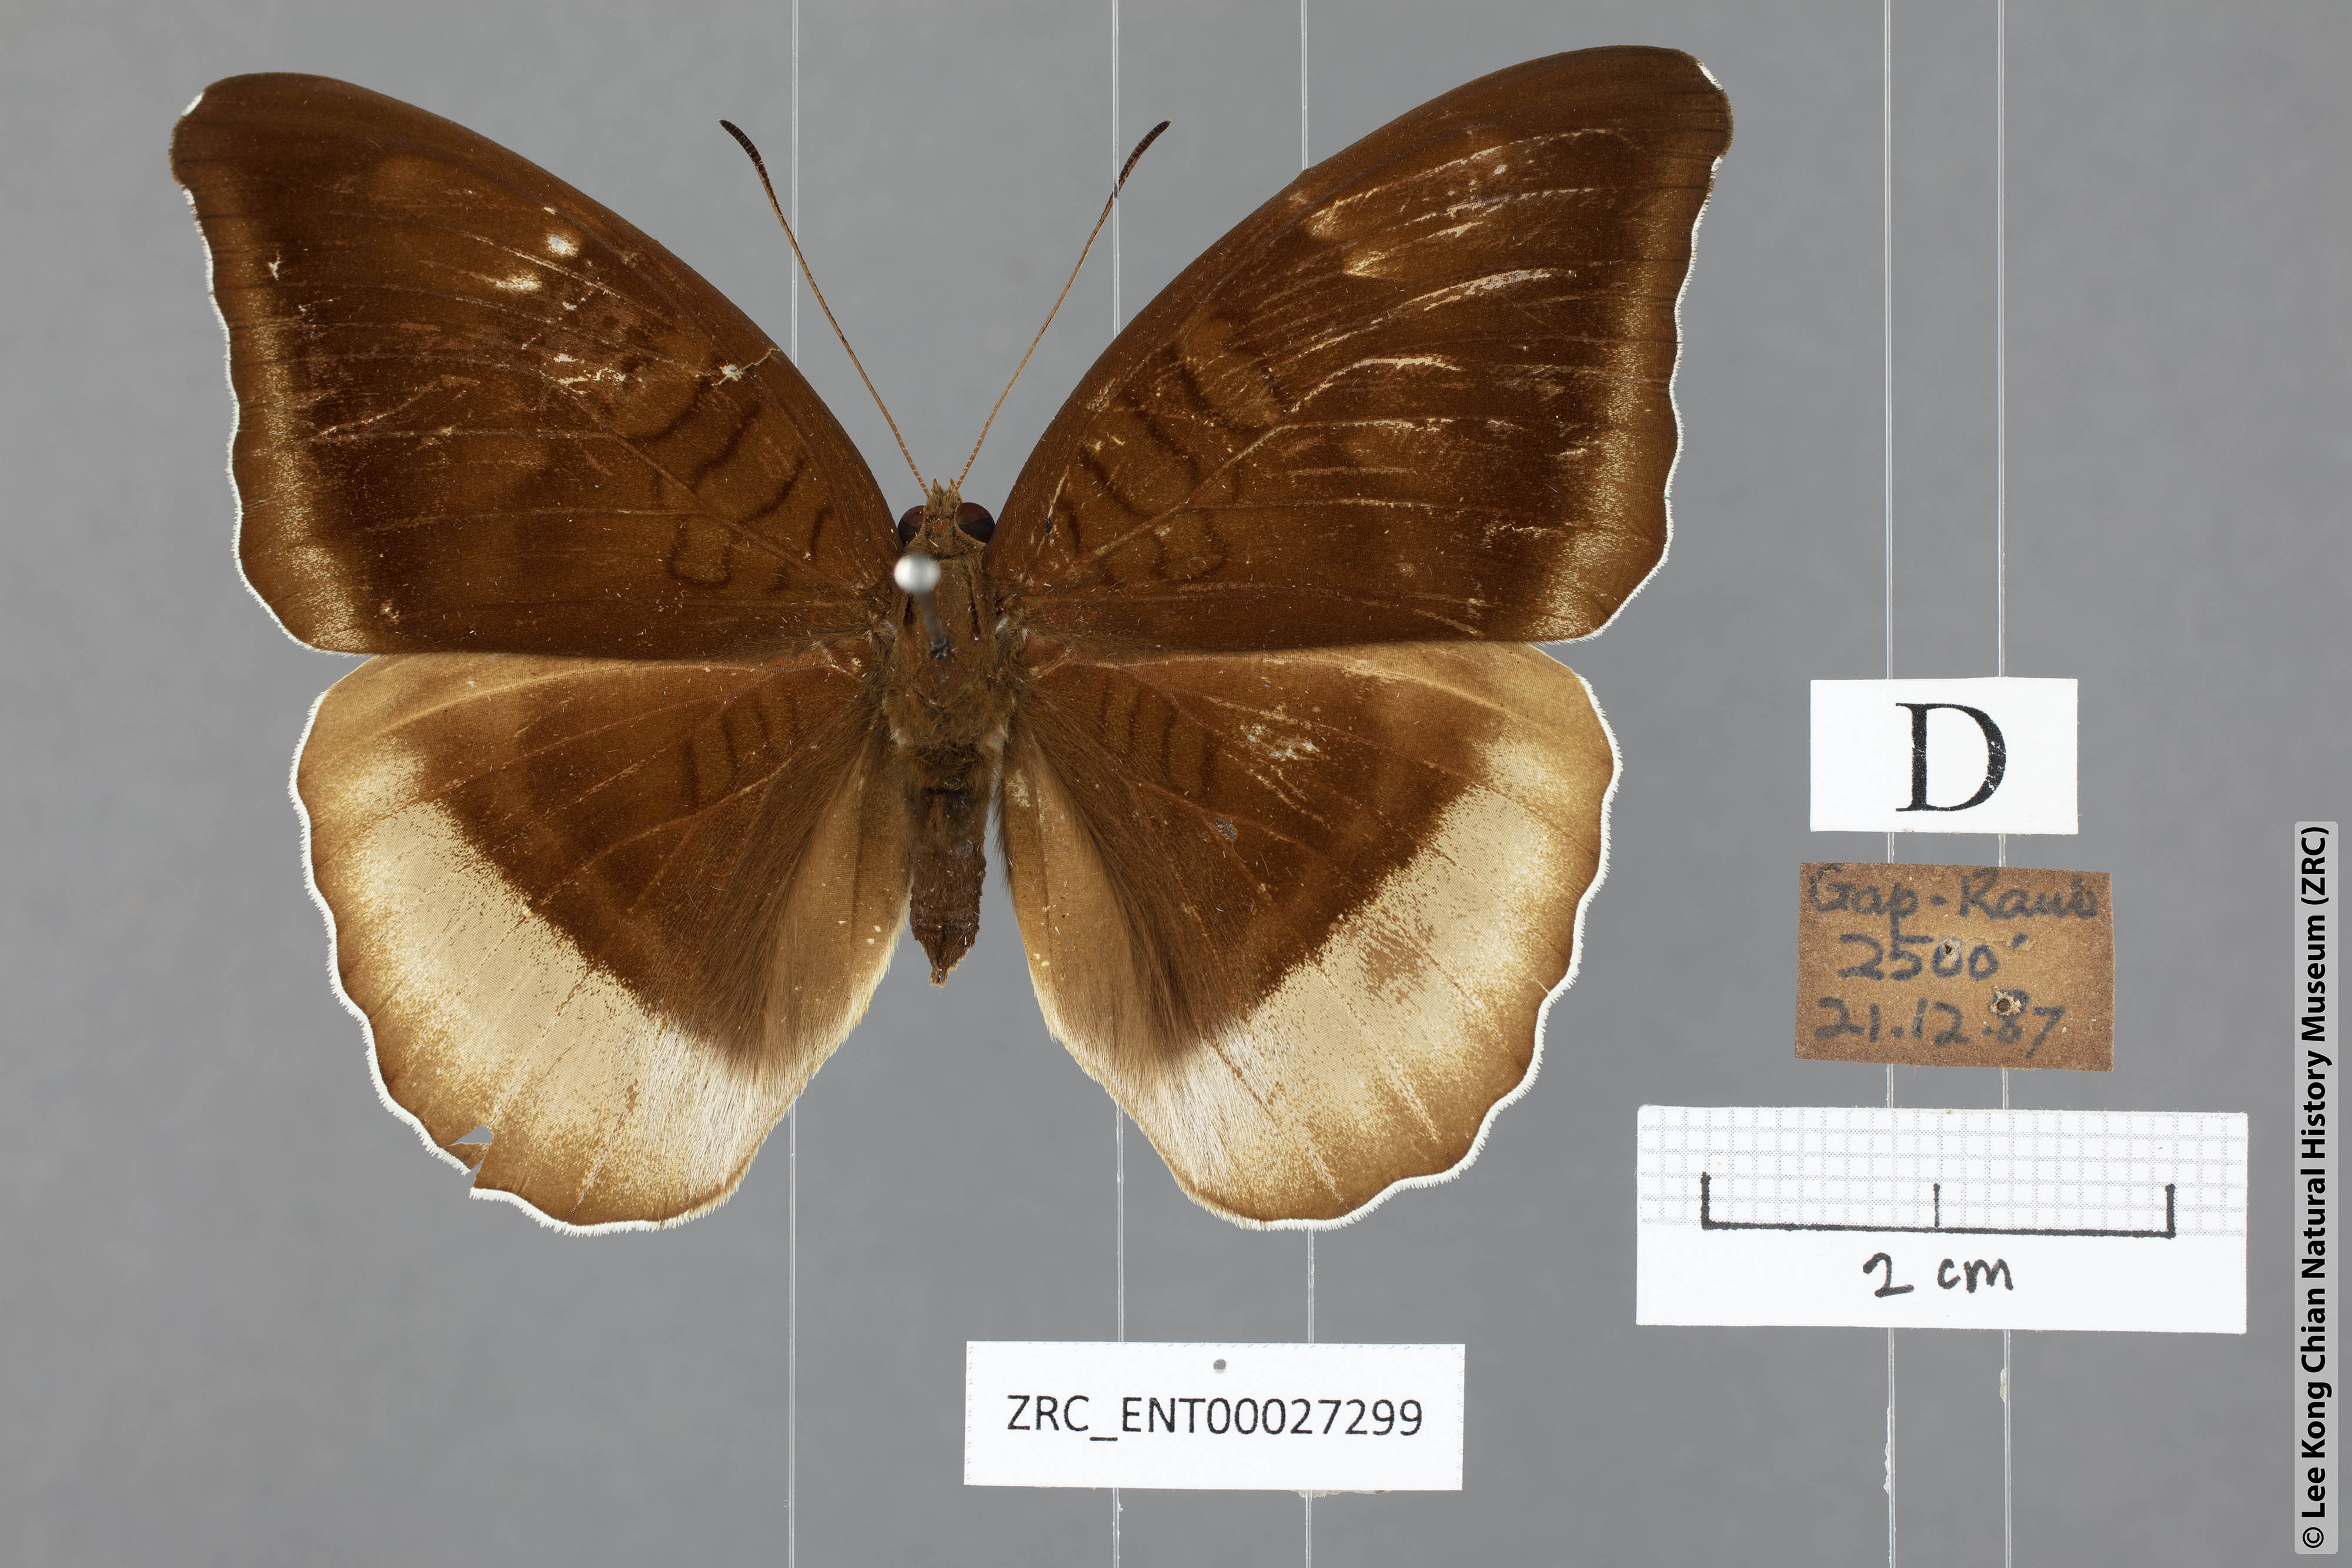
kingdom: Animalia
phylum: Arthropoda
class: Insecta
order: Lepidoptera
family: Nymphalidae
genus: Tanaecia
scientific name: Tanaecia lepidea
